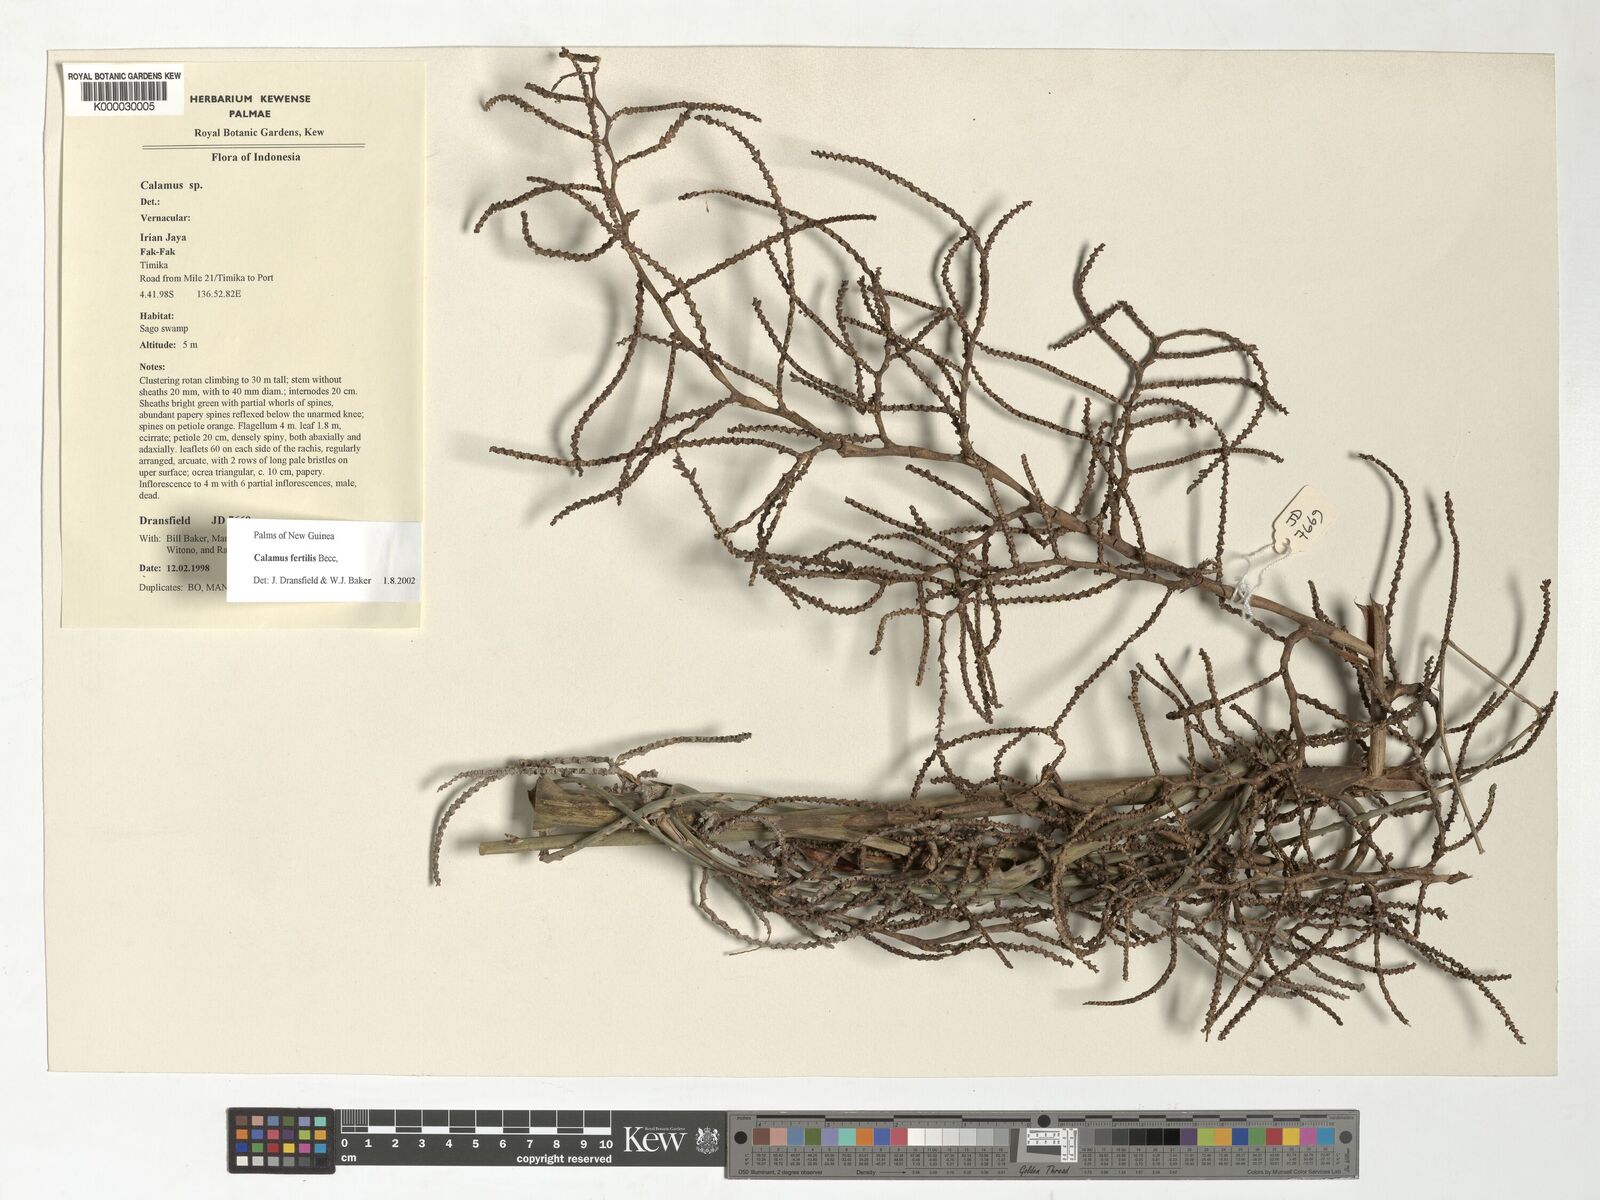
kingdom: Plantae
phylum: Tracheophyta
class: Liliopsida
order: Arecales
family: Arecaceae
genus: Calamus
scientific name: Calamus fertilis
